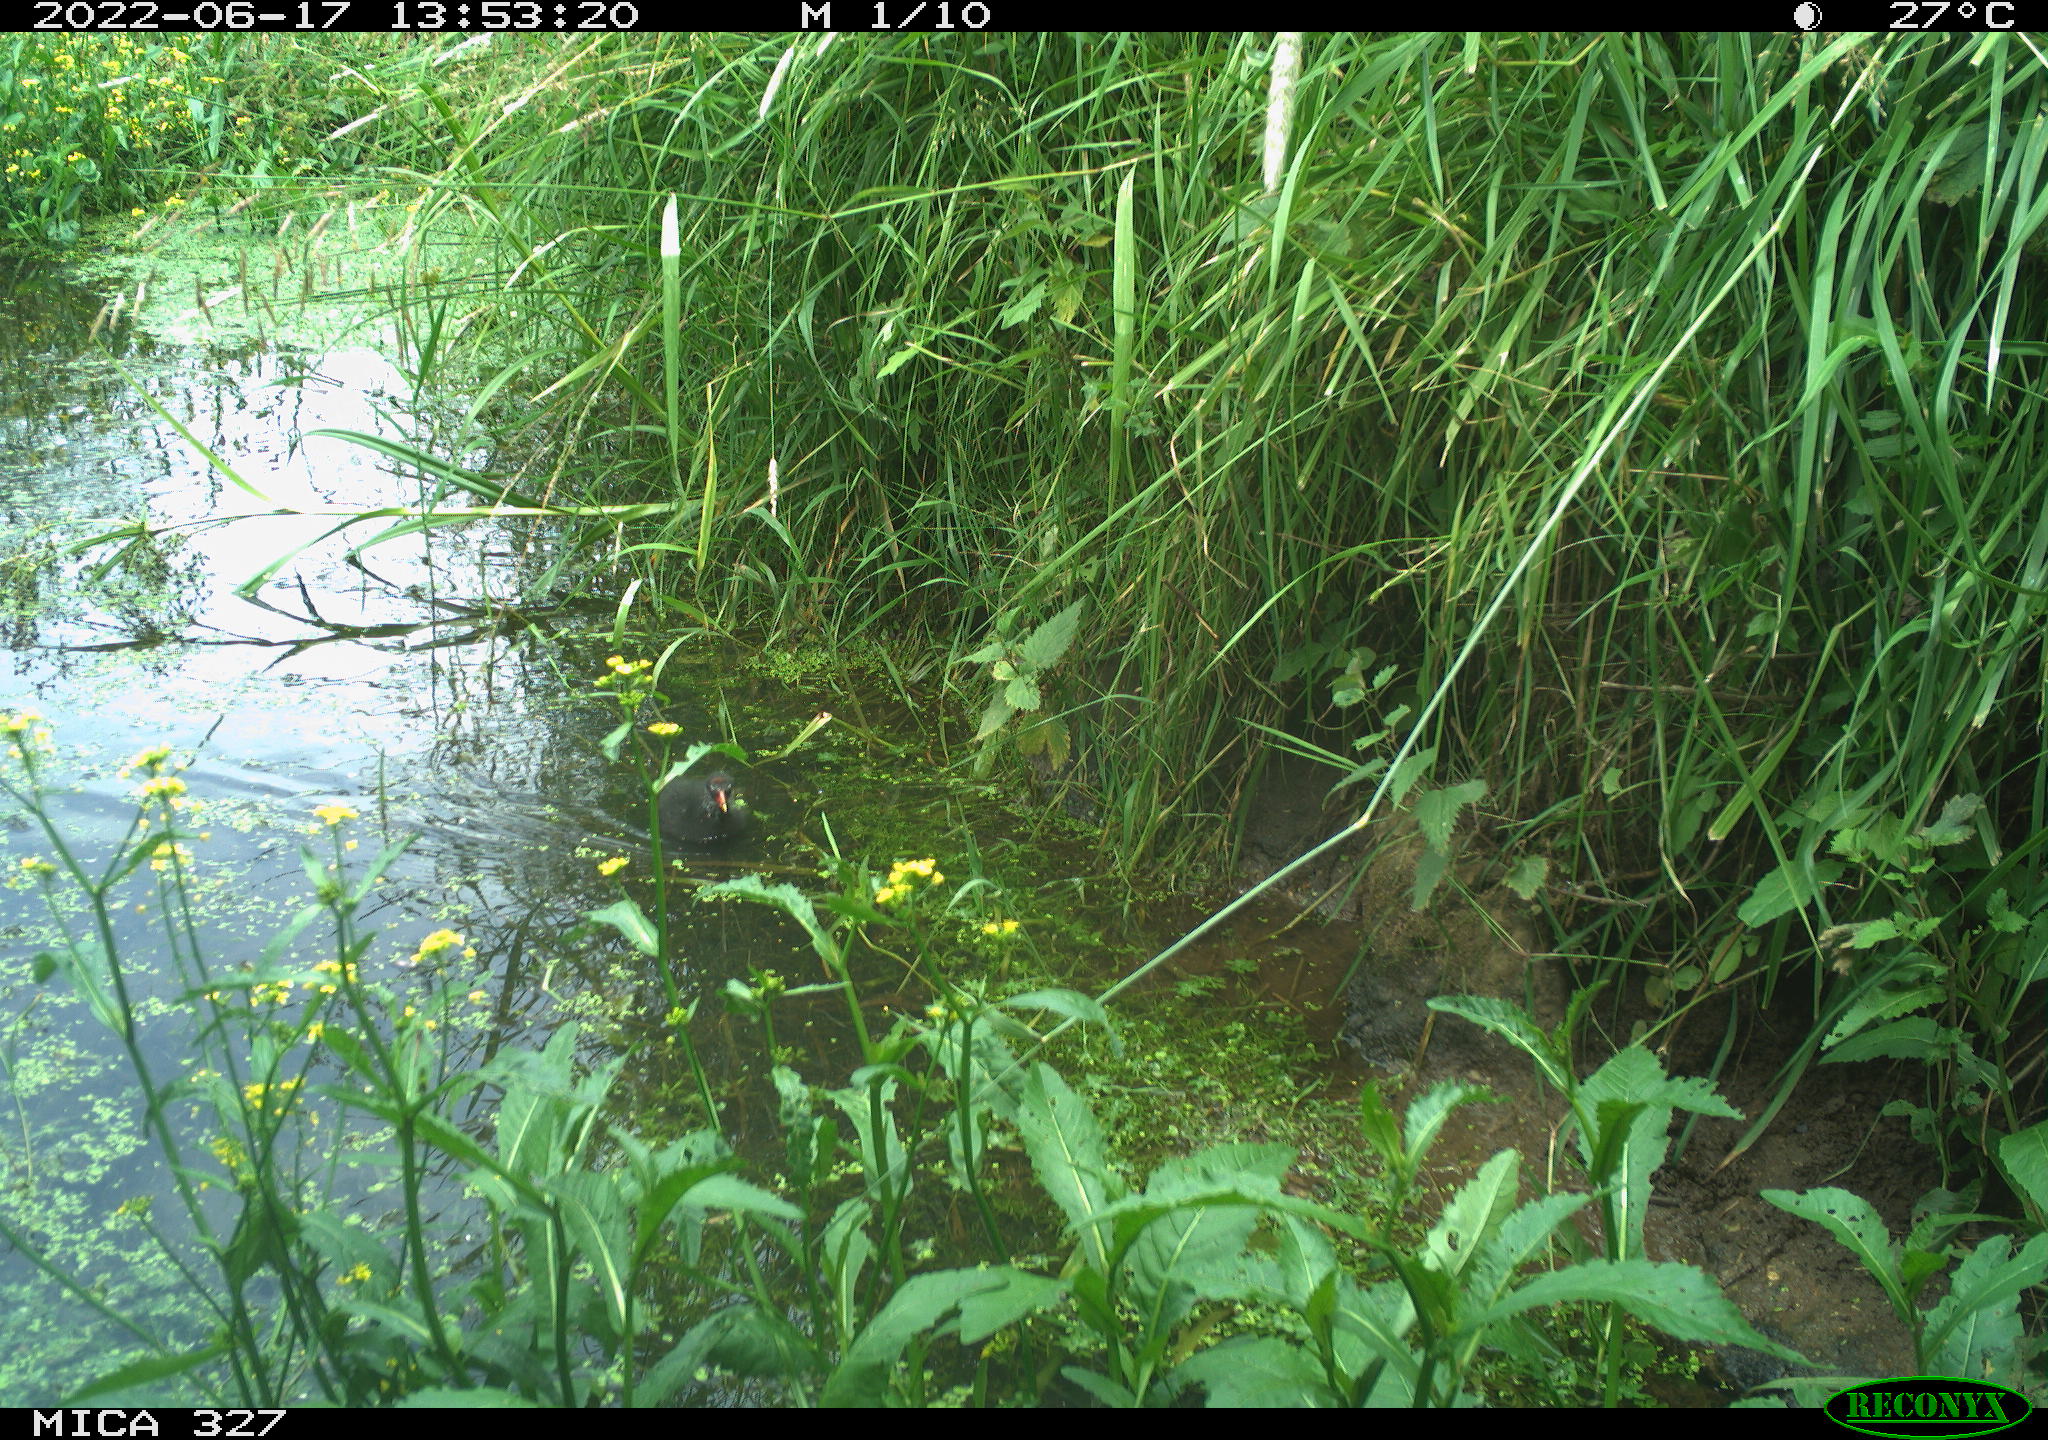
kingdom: Animalia
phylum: Chordata
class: Aves
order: Gruiformes
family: Rallidae
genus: Gallinula
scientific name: Gallinula chloropus
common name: Common moorhen
